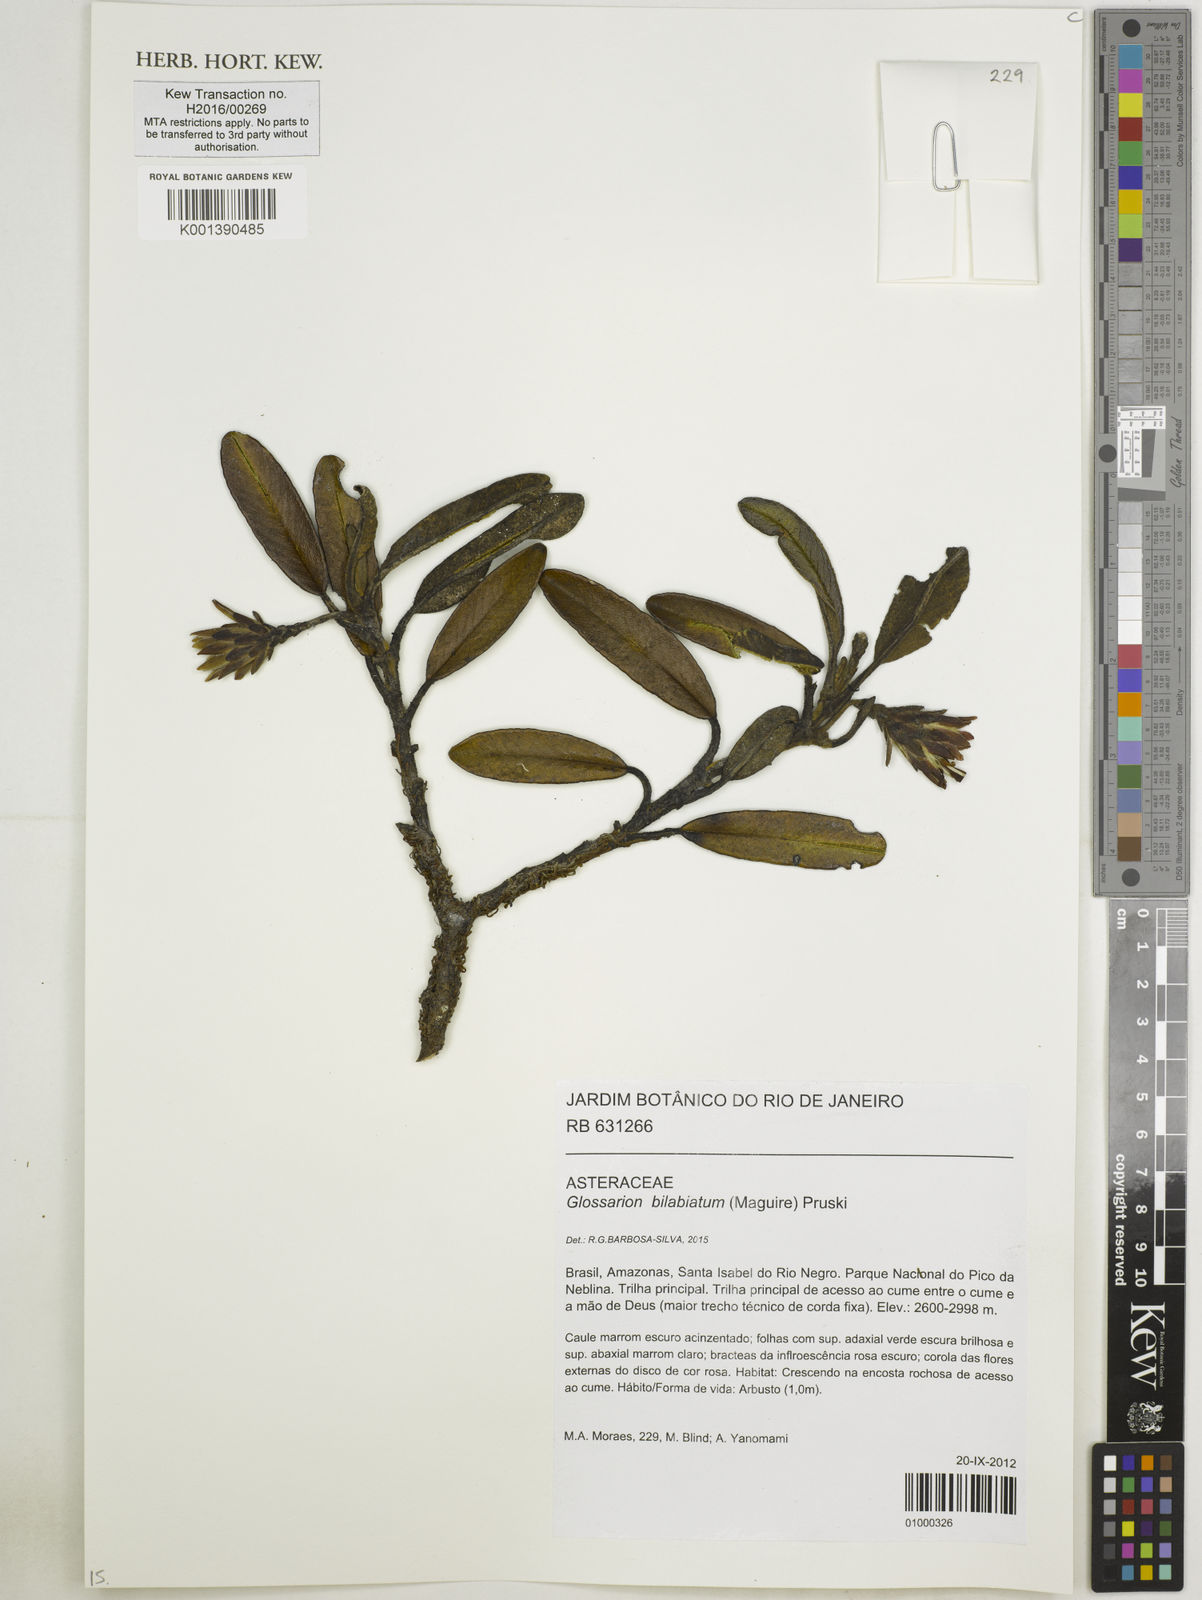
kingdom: Plantae
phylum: Tracheophyta
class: Magnoliopsida
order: Asterales
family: Asteraceae
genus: Glossarion
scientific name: Glossarion bilabiatum
